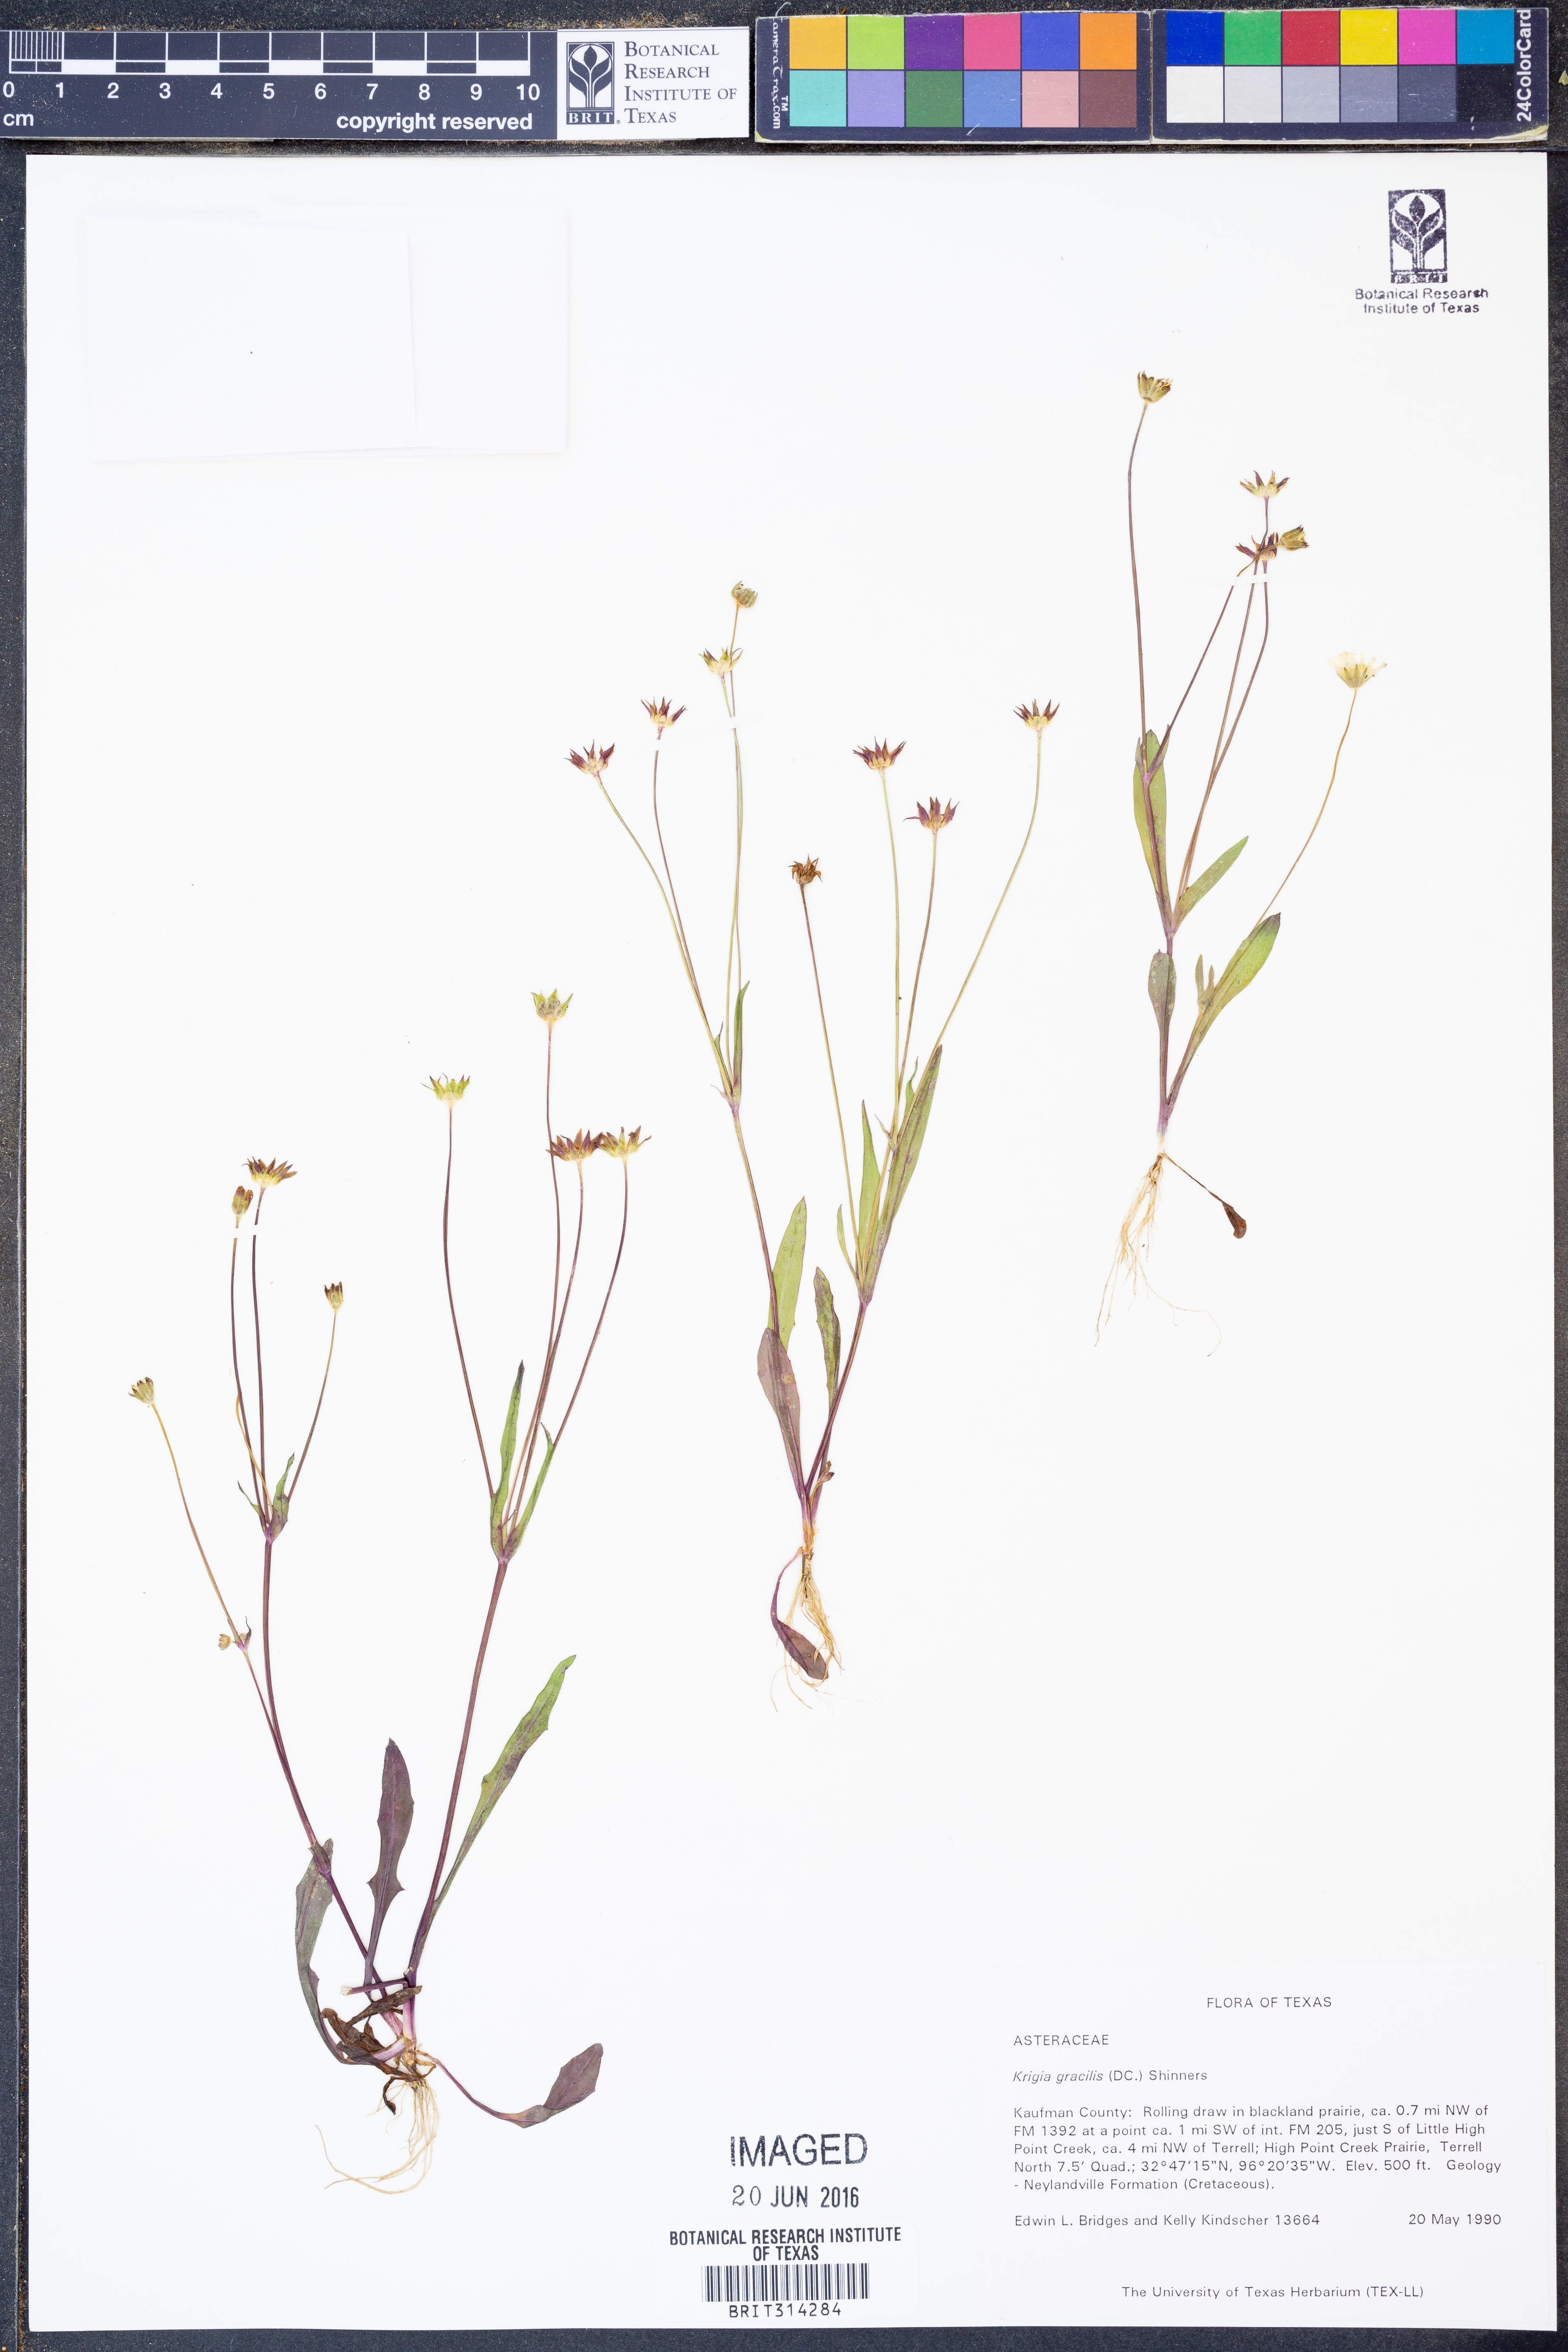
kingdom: Plantae
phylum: Tracheophyta
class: Magnoliopsida
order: Asterales
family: Asteraceae
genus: Krigia
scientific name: Krigia cespitosa
